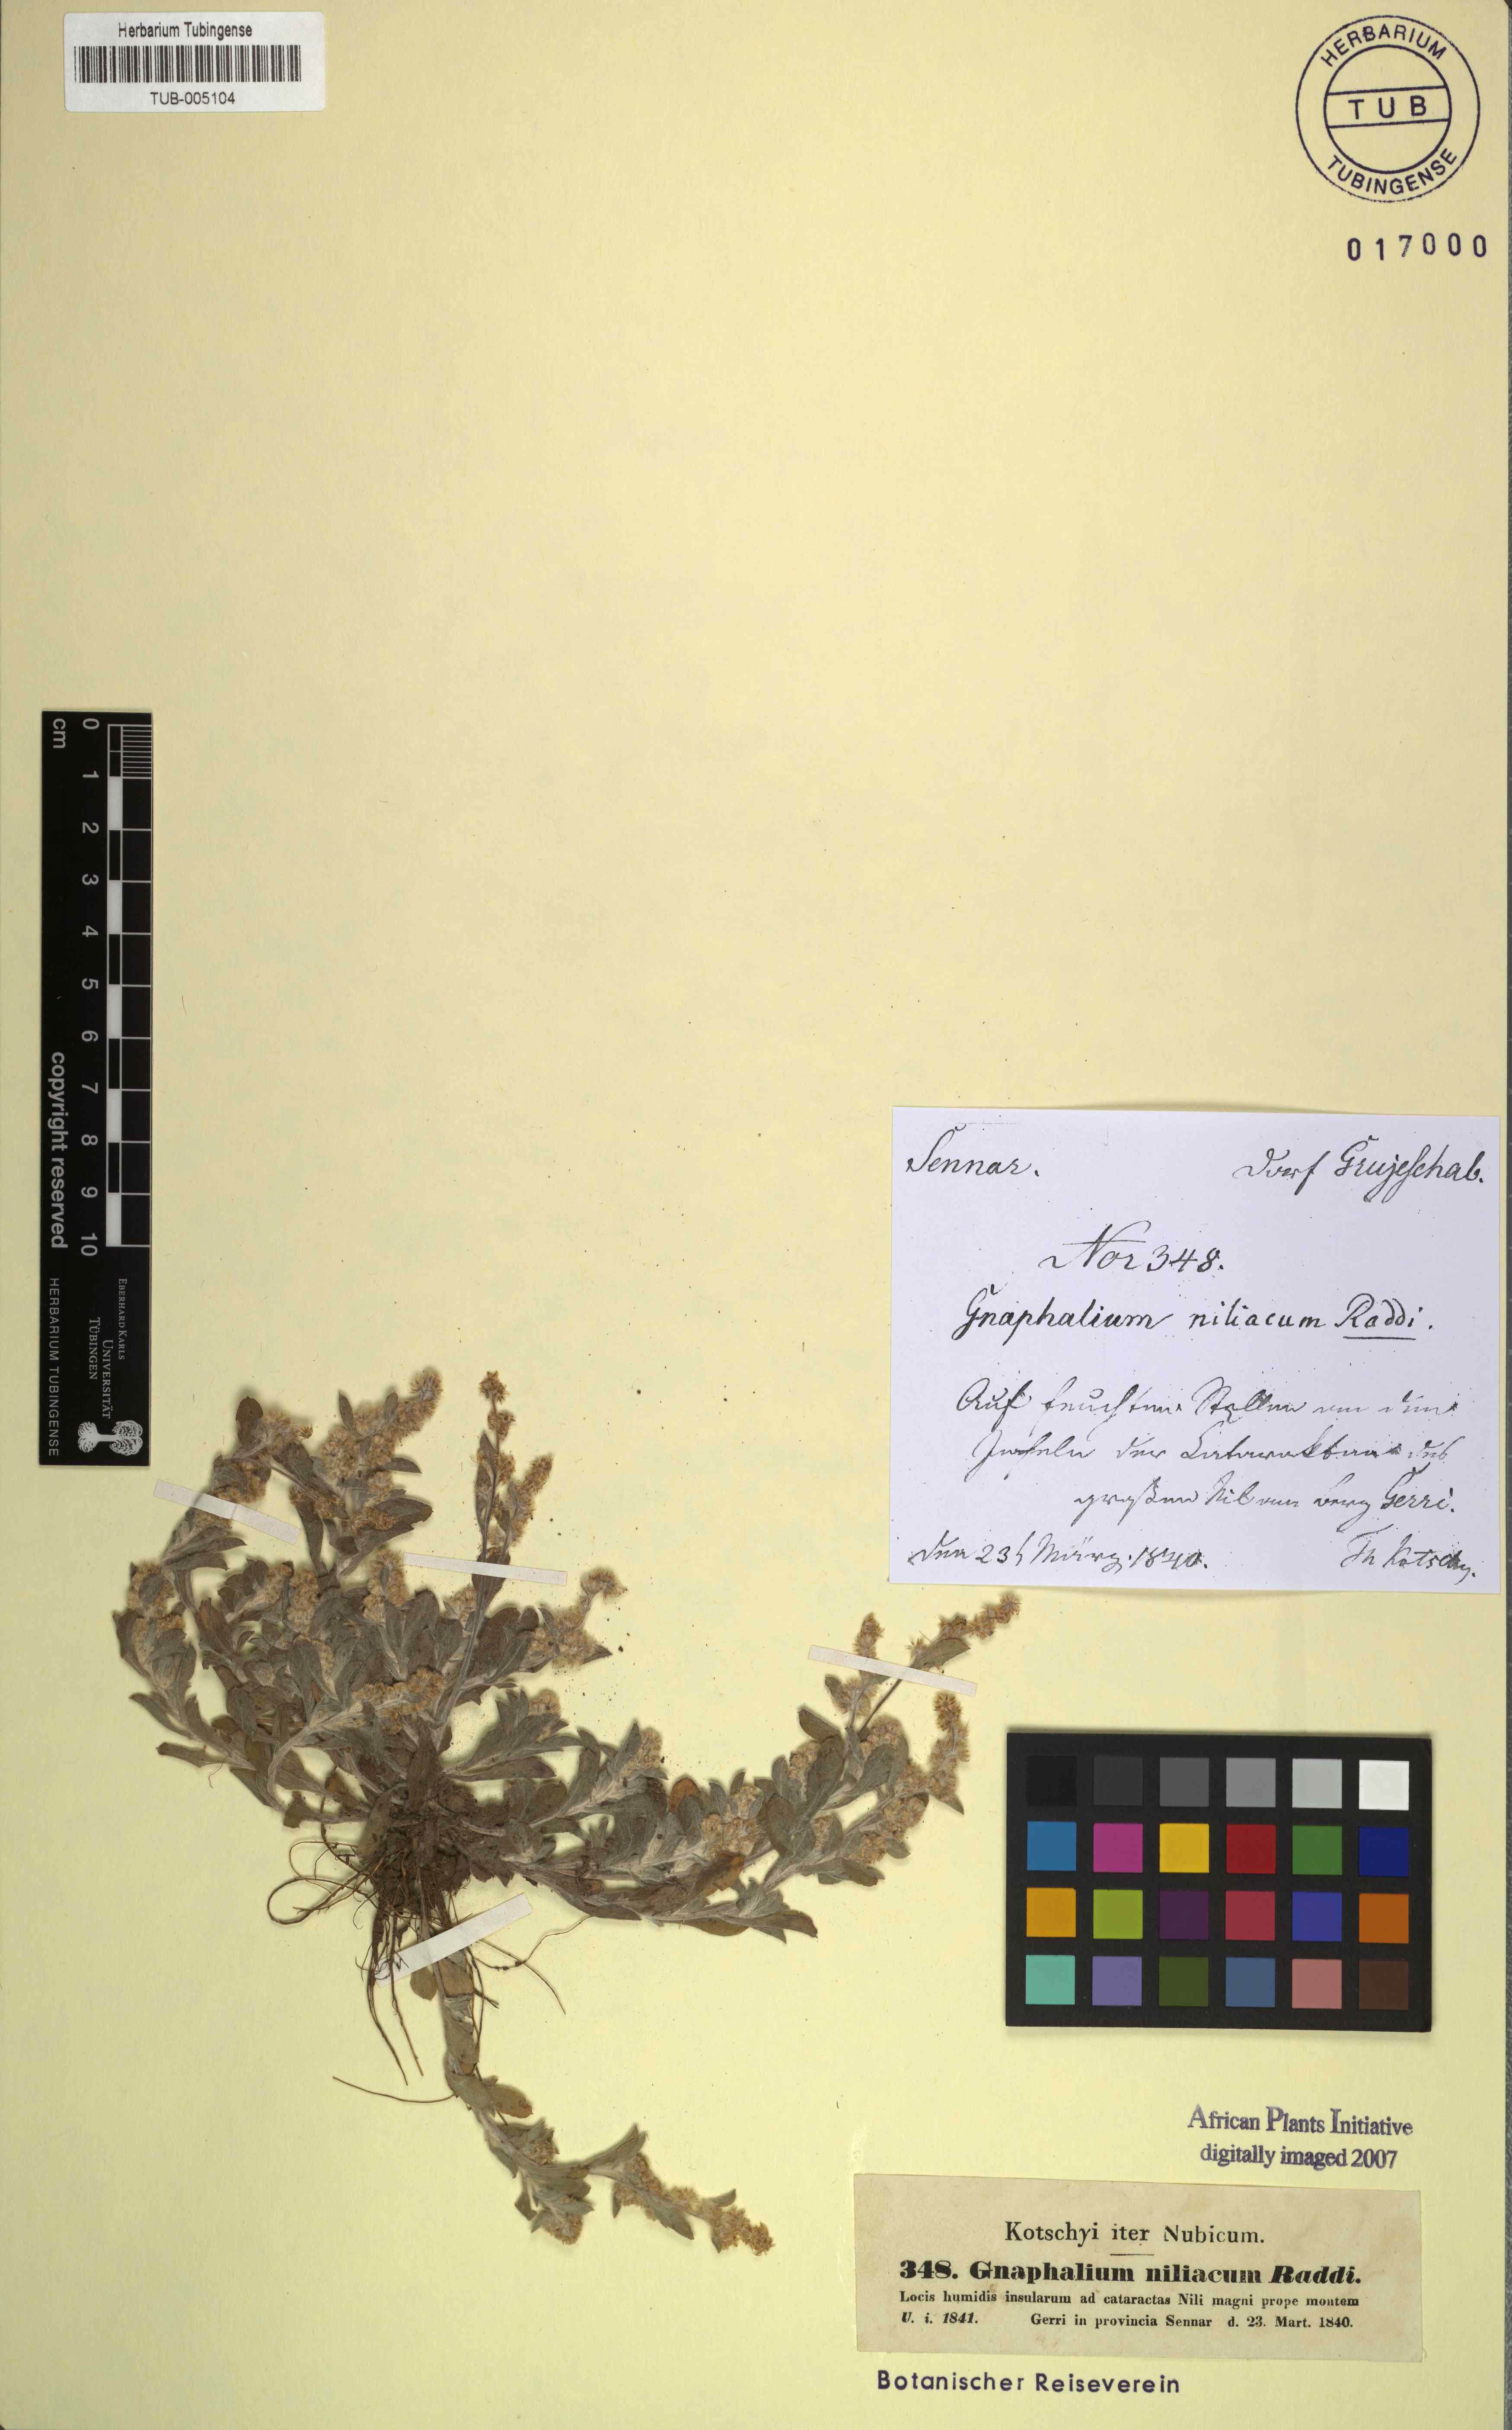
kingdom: Plantae
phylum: Tracheophyta
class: Magnoliopsida
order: Asterales
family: Asteraceae
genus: Helichrysum
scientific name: Helichrysum indicum
